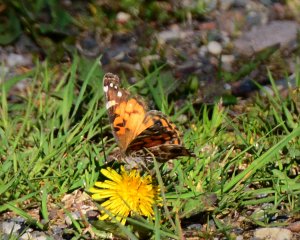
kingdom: Animalia
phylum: Arthropoda
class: Insecta
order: Lepidoptera
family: Nymphalidae
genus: Vanessa
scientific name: Vanessa virginiensis
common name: American Lady
